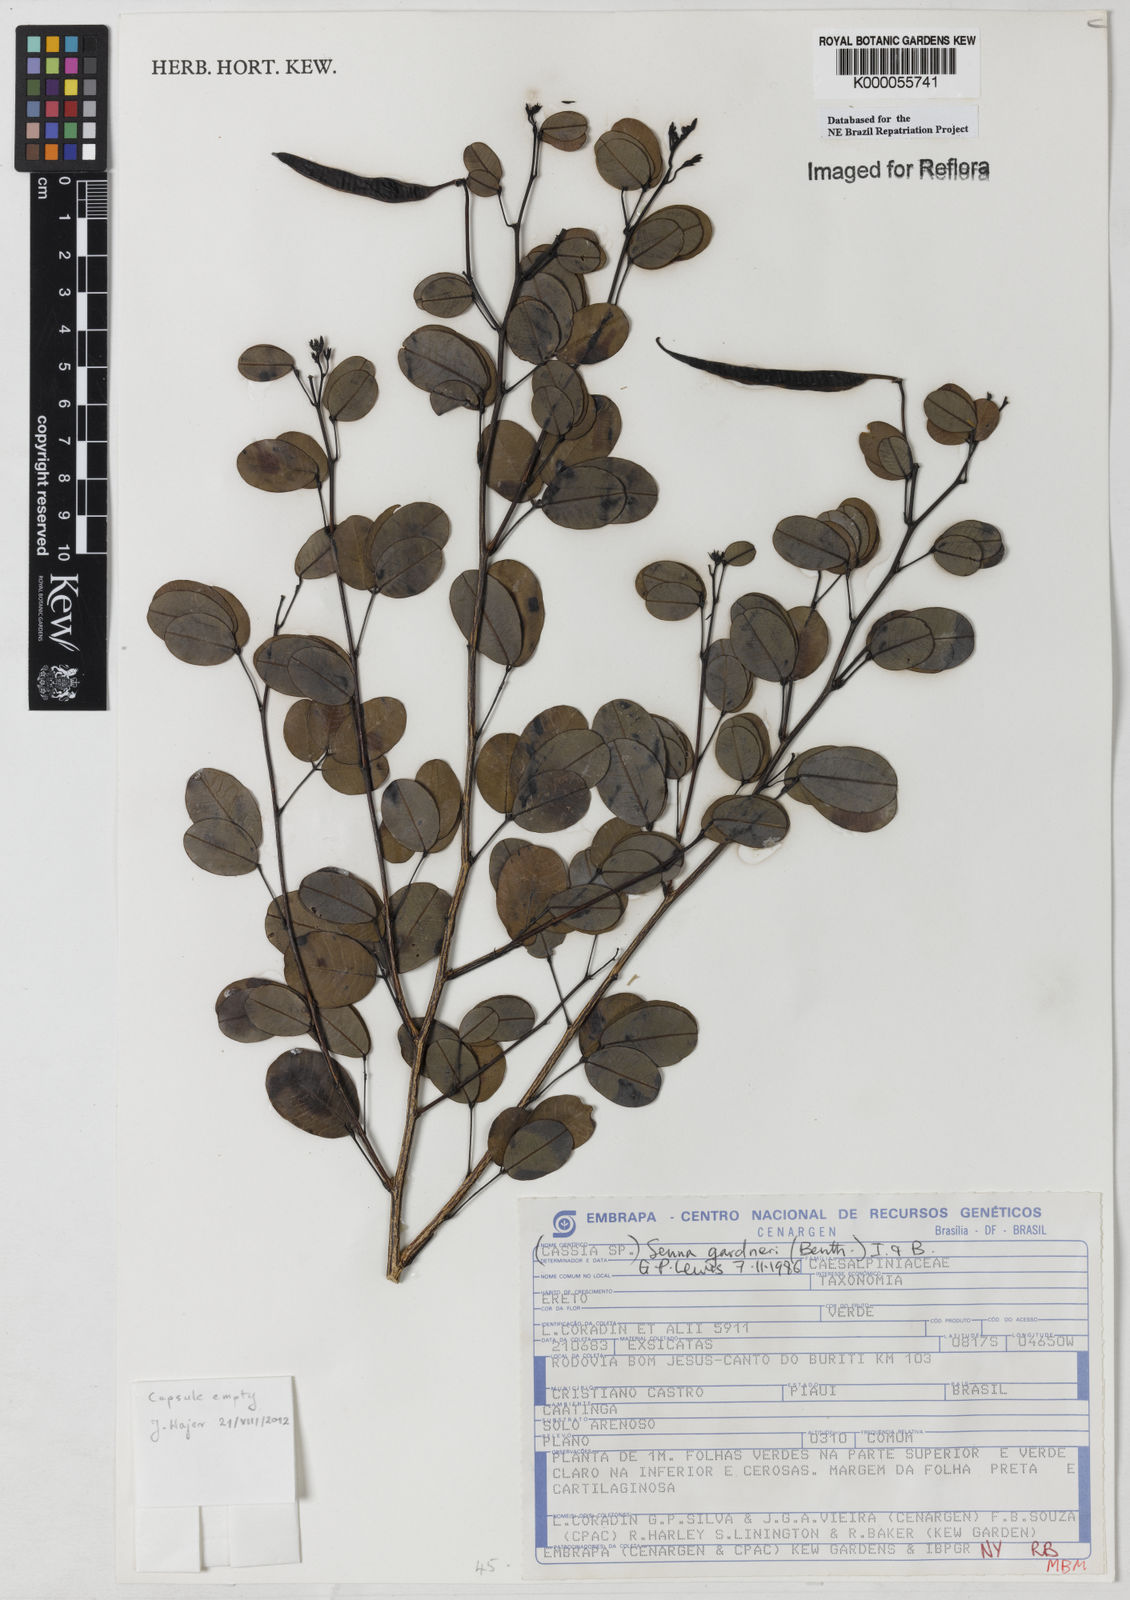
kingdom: Plantae
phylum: Tracheophyta
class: Magnoliopsida
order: Fabales
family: Fabaceae
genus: Senna
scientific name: Senna gardneri
